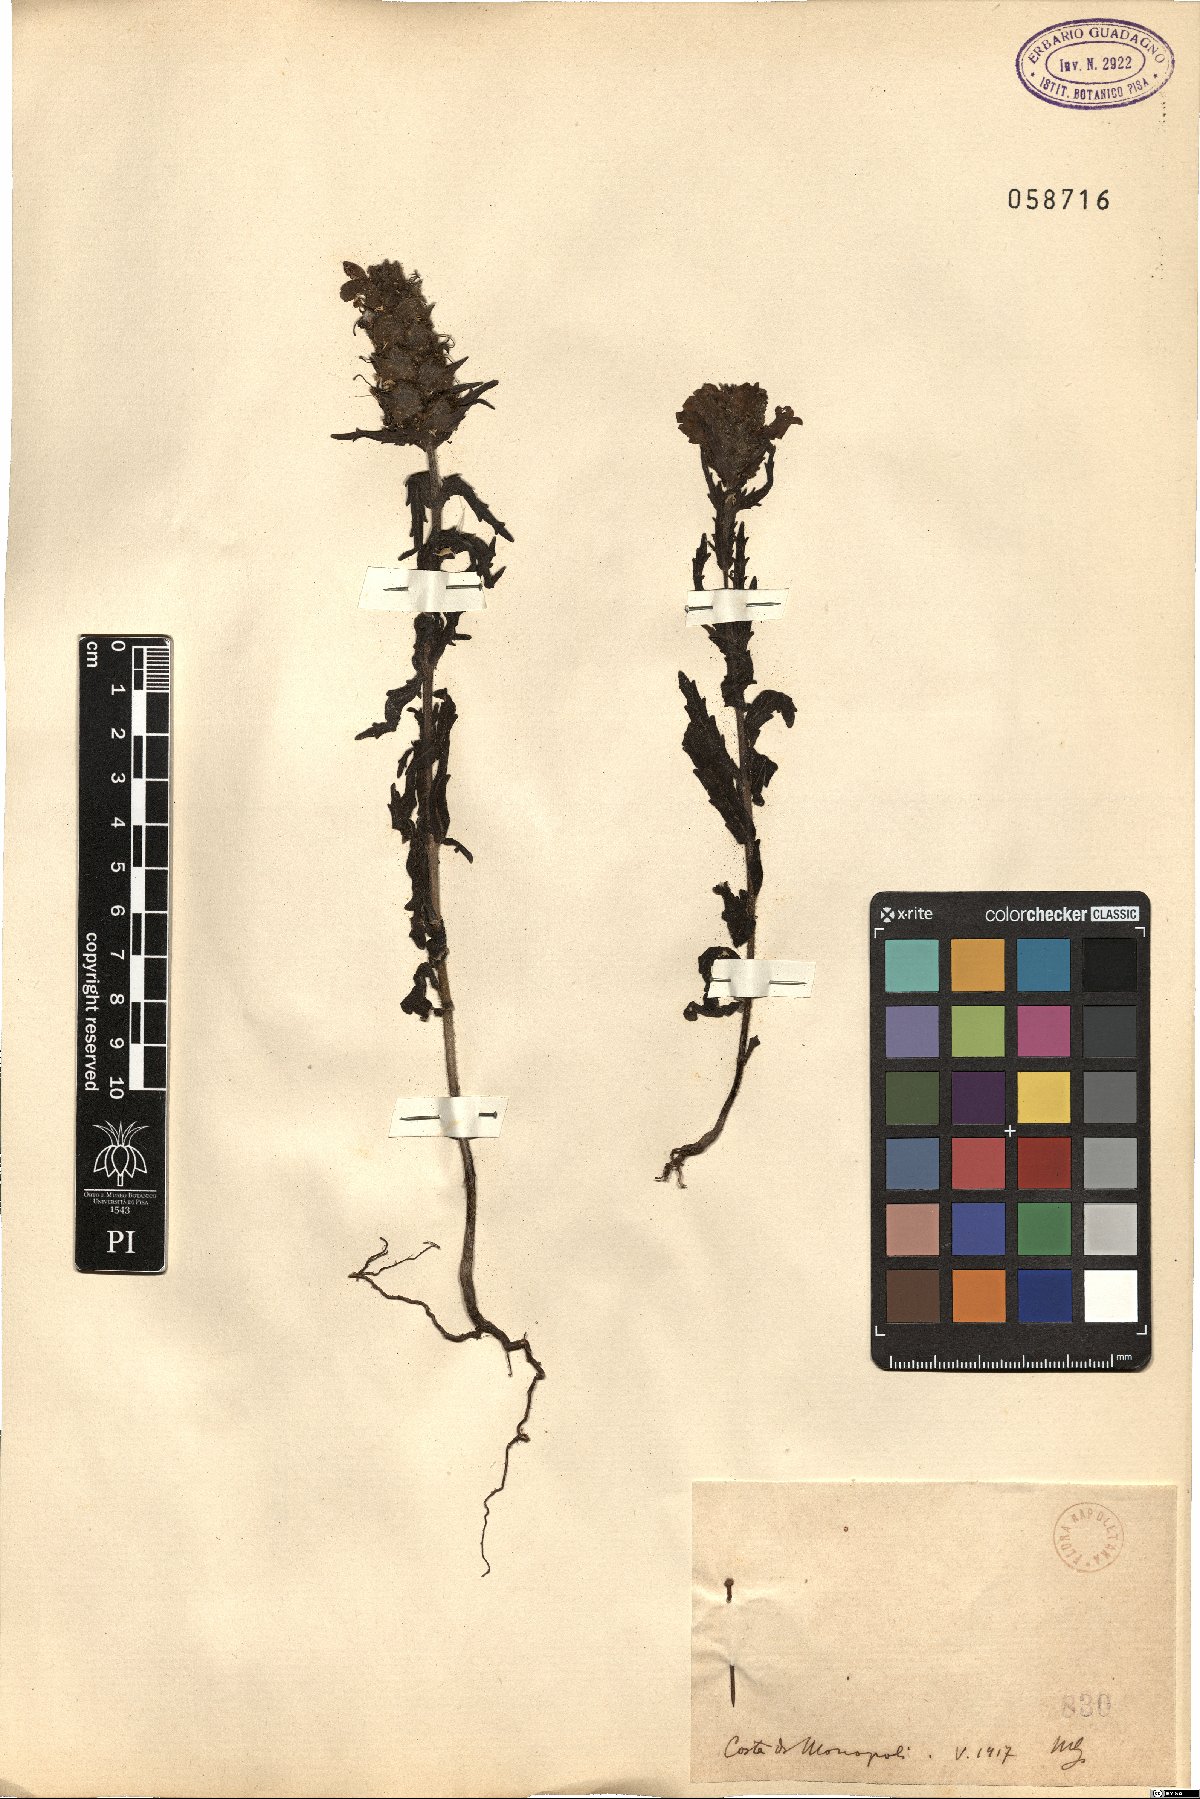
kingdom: Plantae
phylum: Tracheophyta
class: Magnoliopsida
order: Lamiales
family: Orobanchaceae
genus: Bartsia
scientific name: Bartsia
